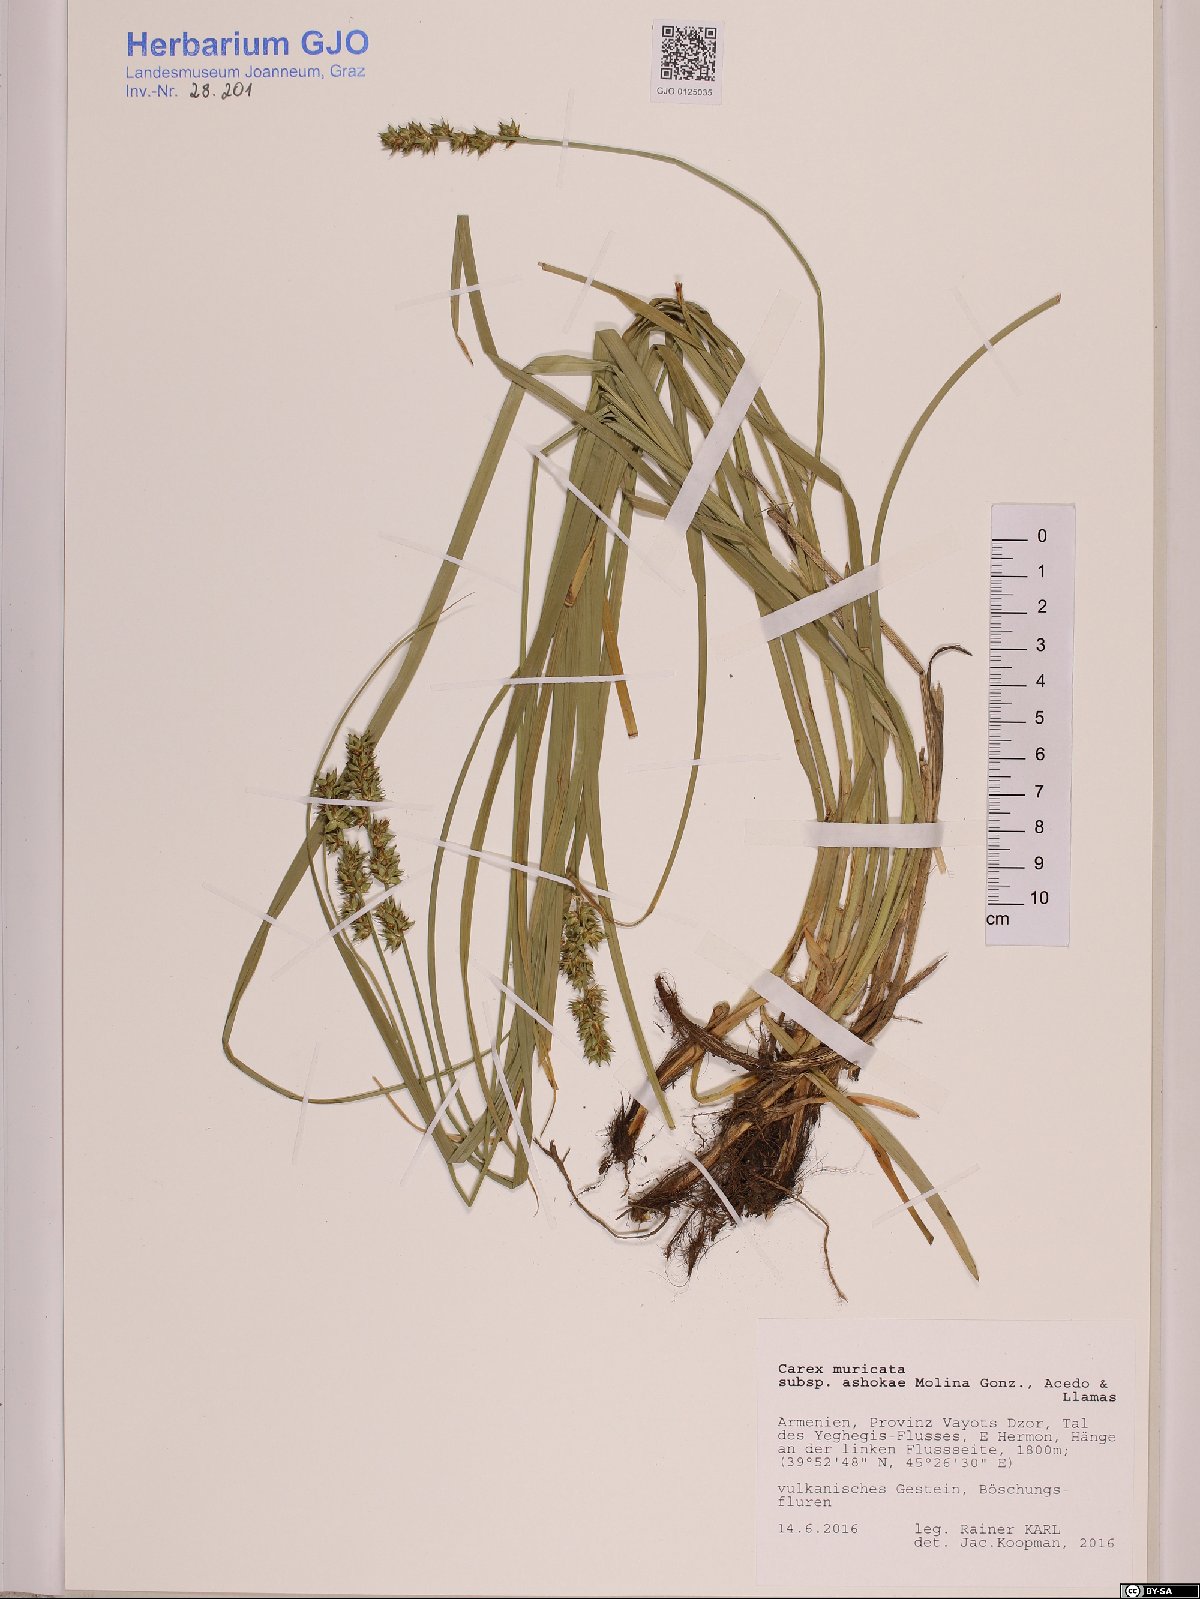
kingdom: Plantae
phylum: Tracheophyta
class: Liliopsida
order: Poales
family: Cyperaceae
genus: Carex
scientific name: Carex muricata
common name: Rough sedge
